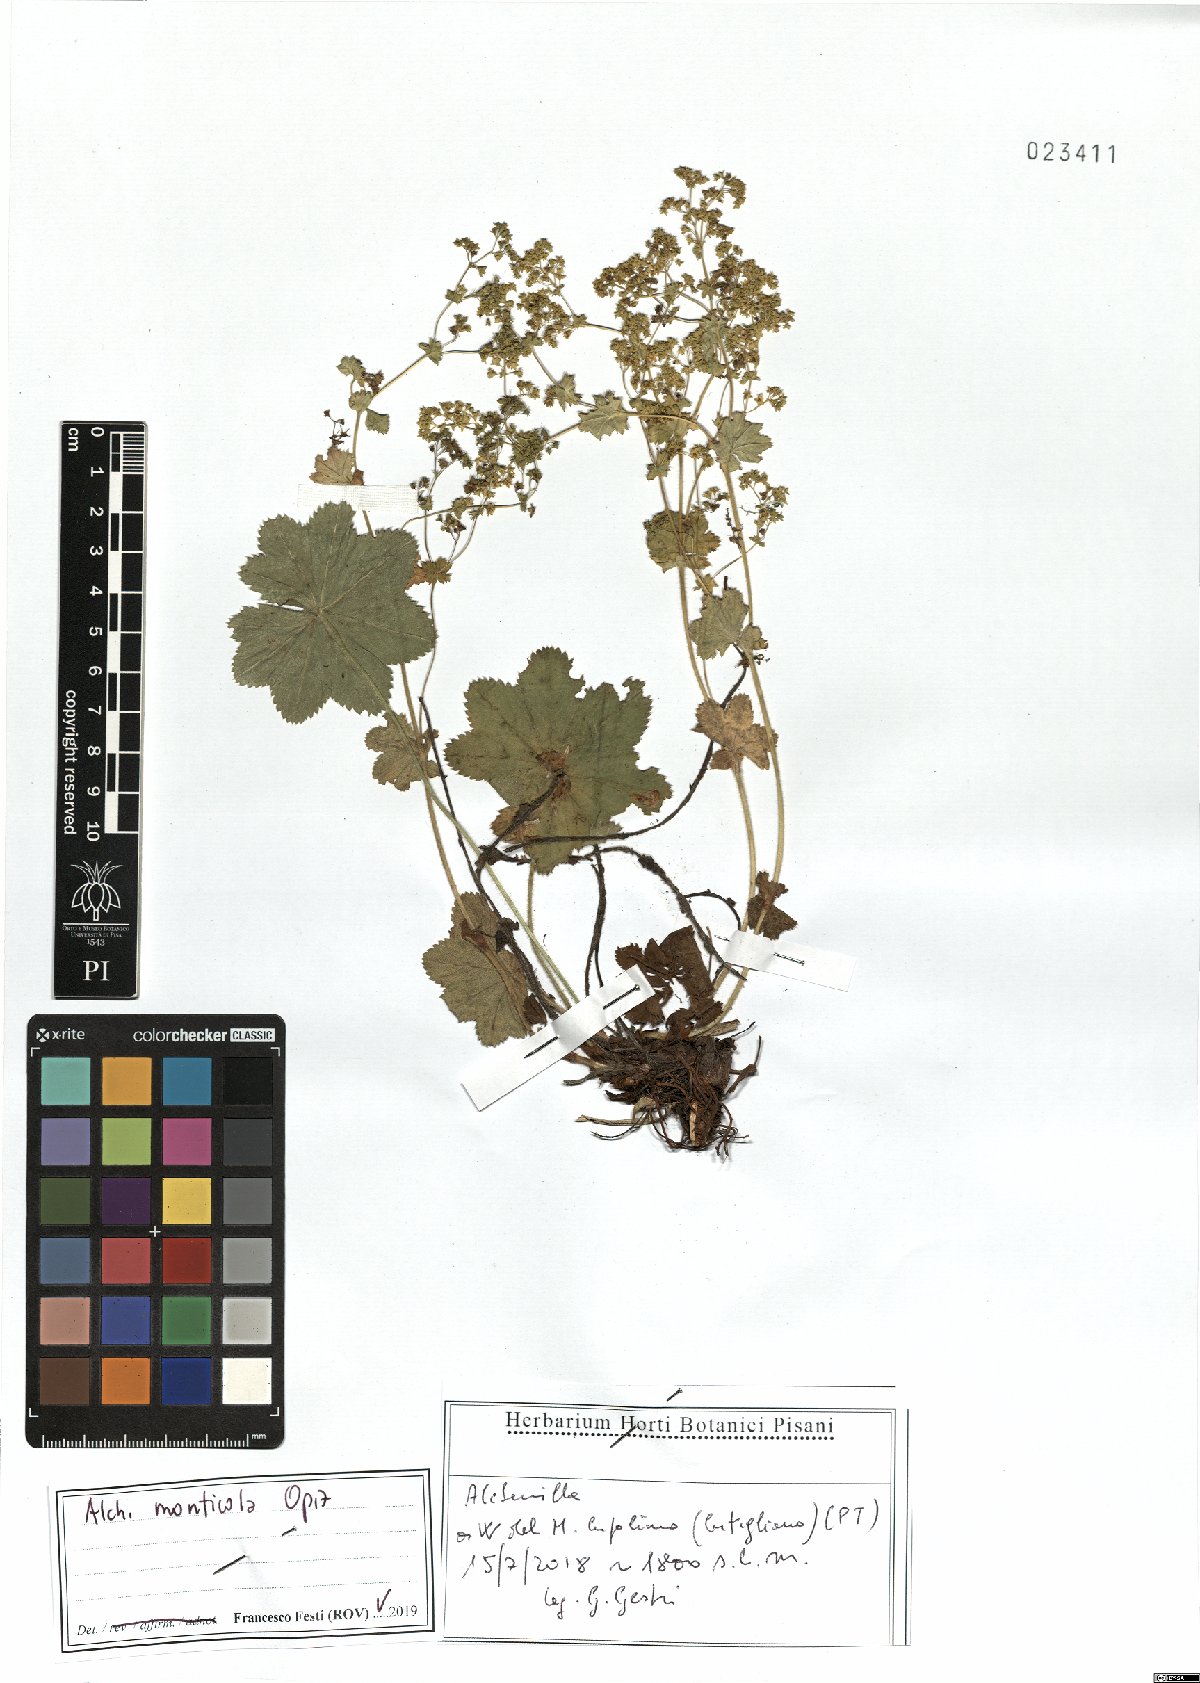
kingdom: Plantae
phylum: Tracheophyta
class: Magnoliopsida
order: Rosales
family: Rosaceae
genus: Alchemilla
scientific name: Alchemilla monticola
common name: Hairy lady's mantle
